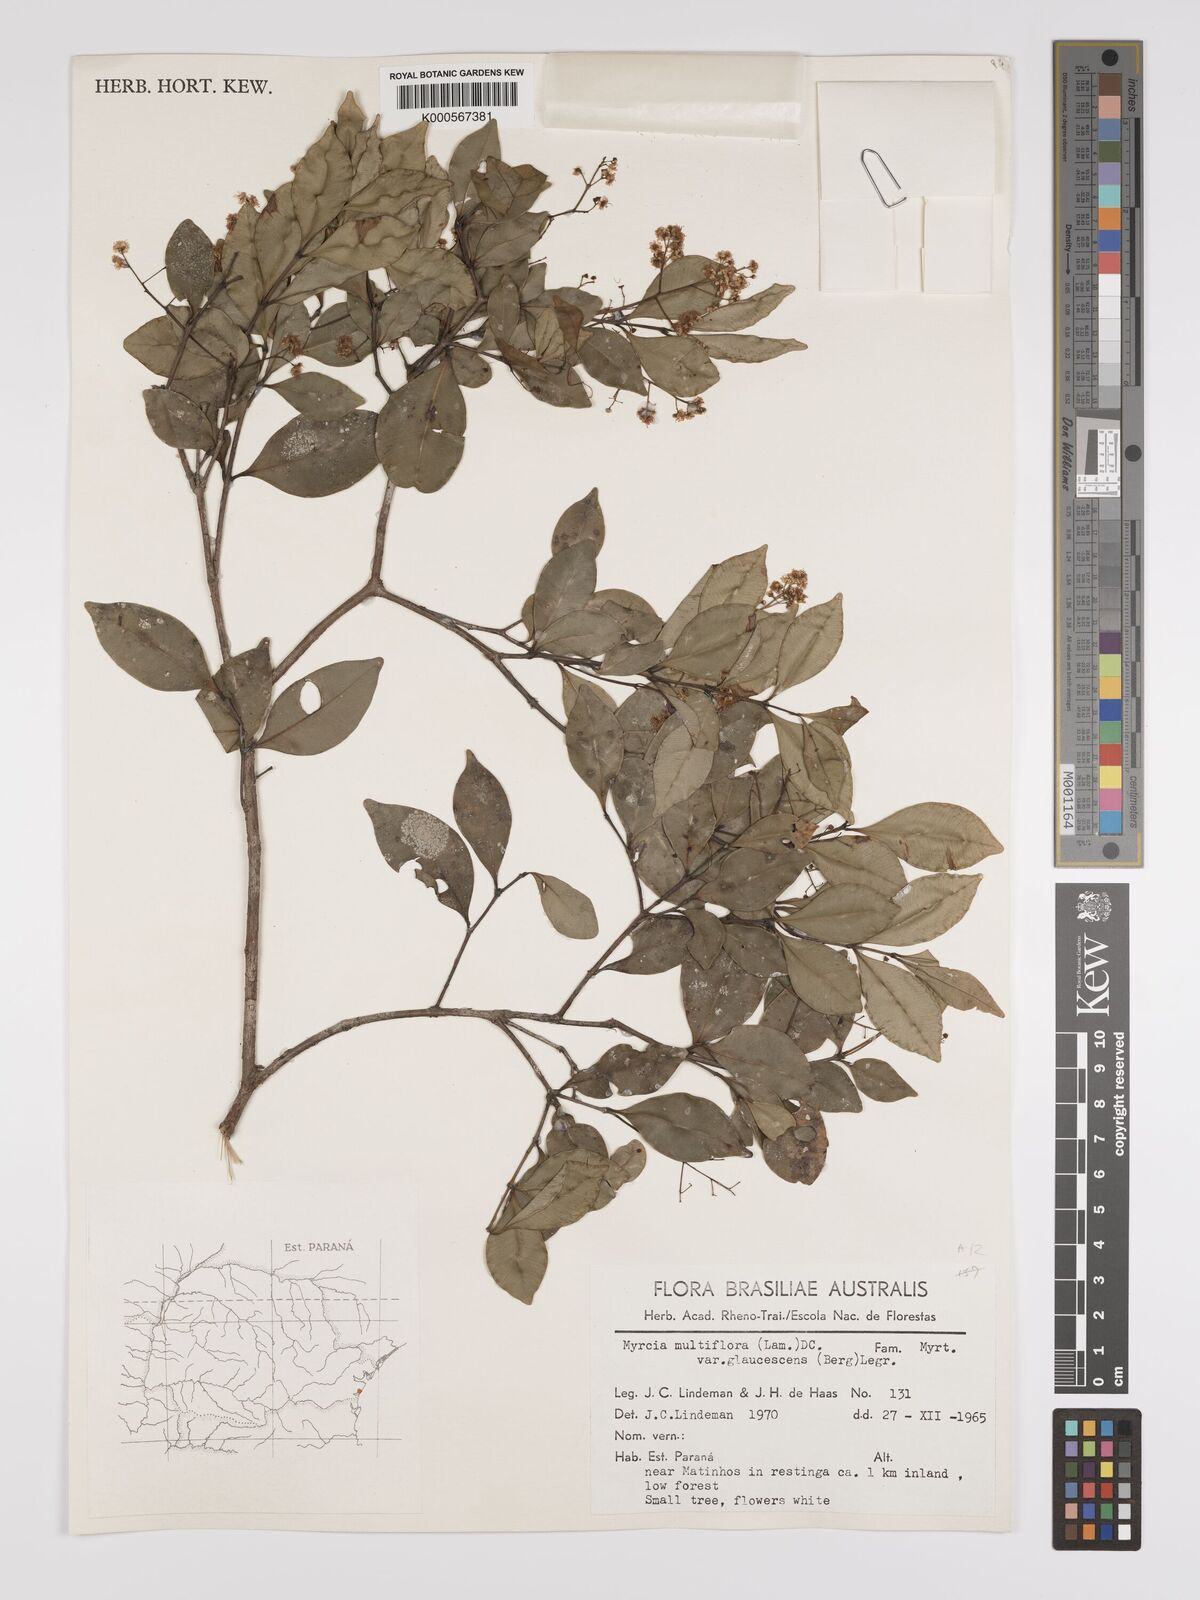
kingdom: Plantae
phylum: Tracheophyta
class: Magnoliopsida
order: Myrtales
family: Myrtaceae
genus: Myrcia
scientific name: Myrcia multiflora
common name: Pedra hume
